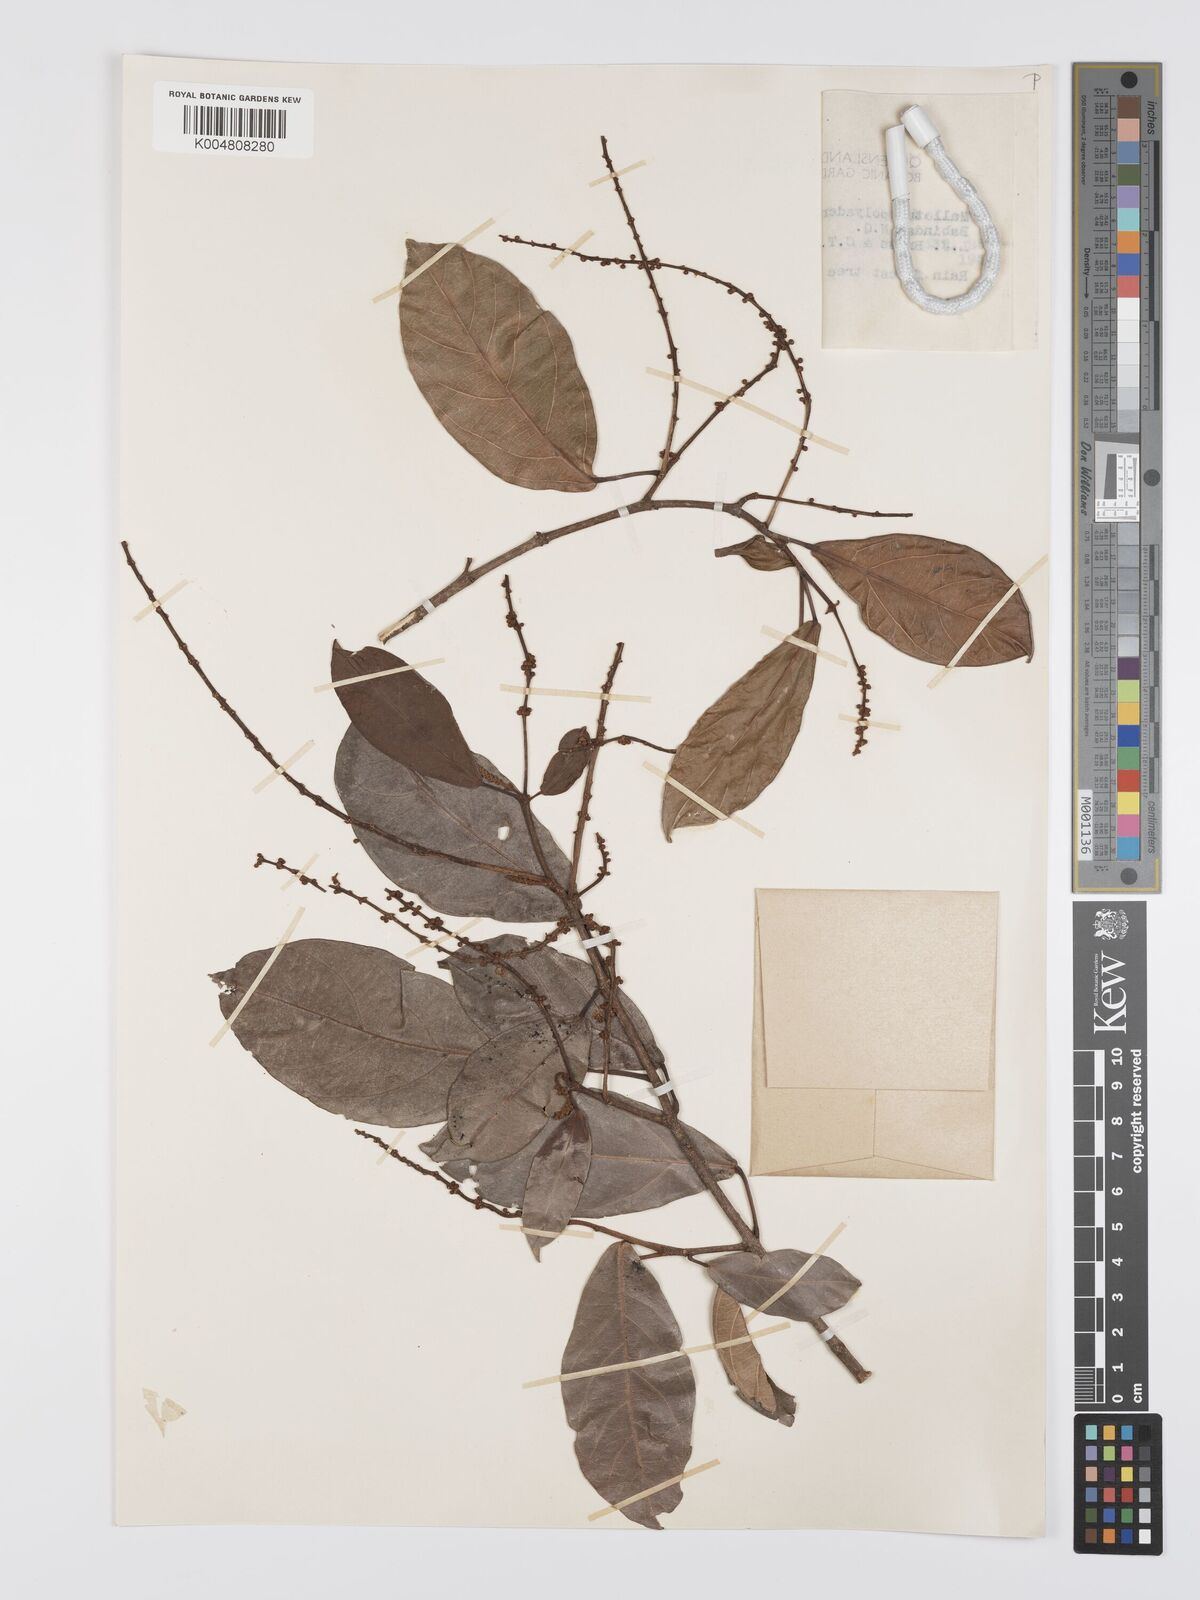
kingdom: Plantae
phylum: Tracheophyta
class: Magnoliopsida
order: Malpighiales
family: Euphorbiaceae
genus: Mallotus
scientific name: Mallotus polyadenos
